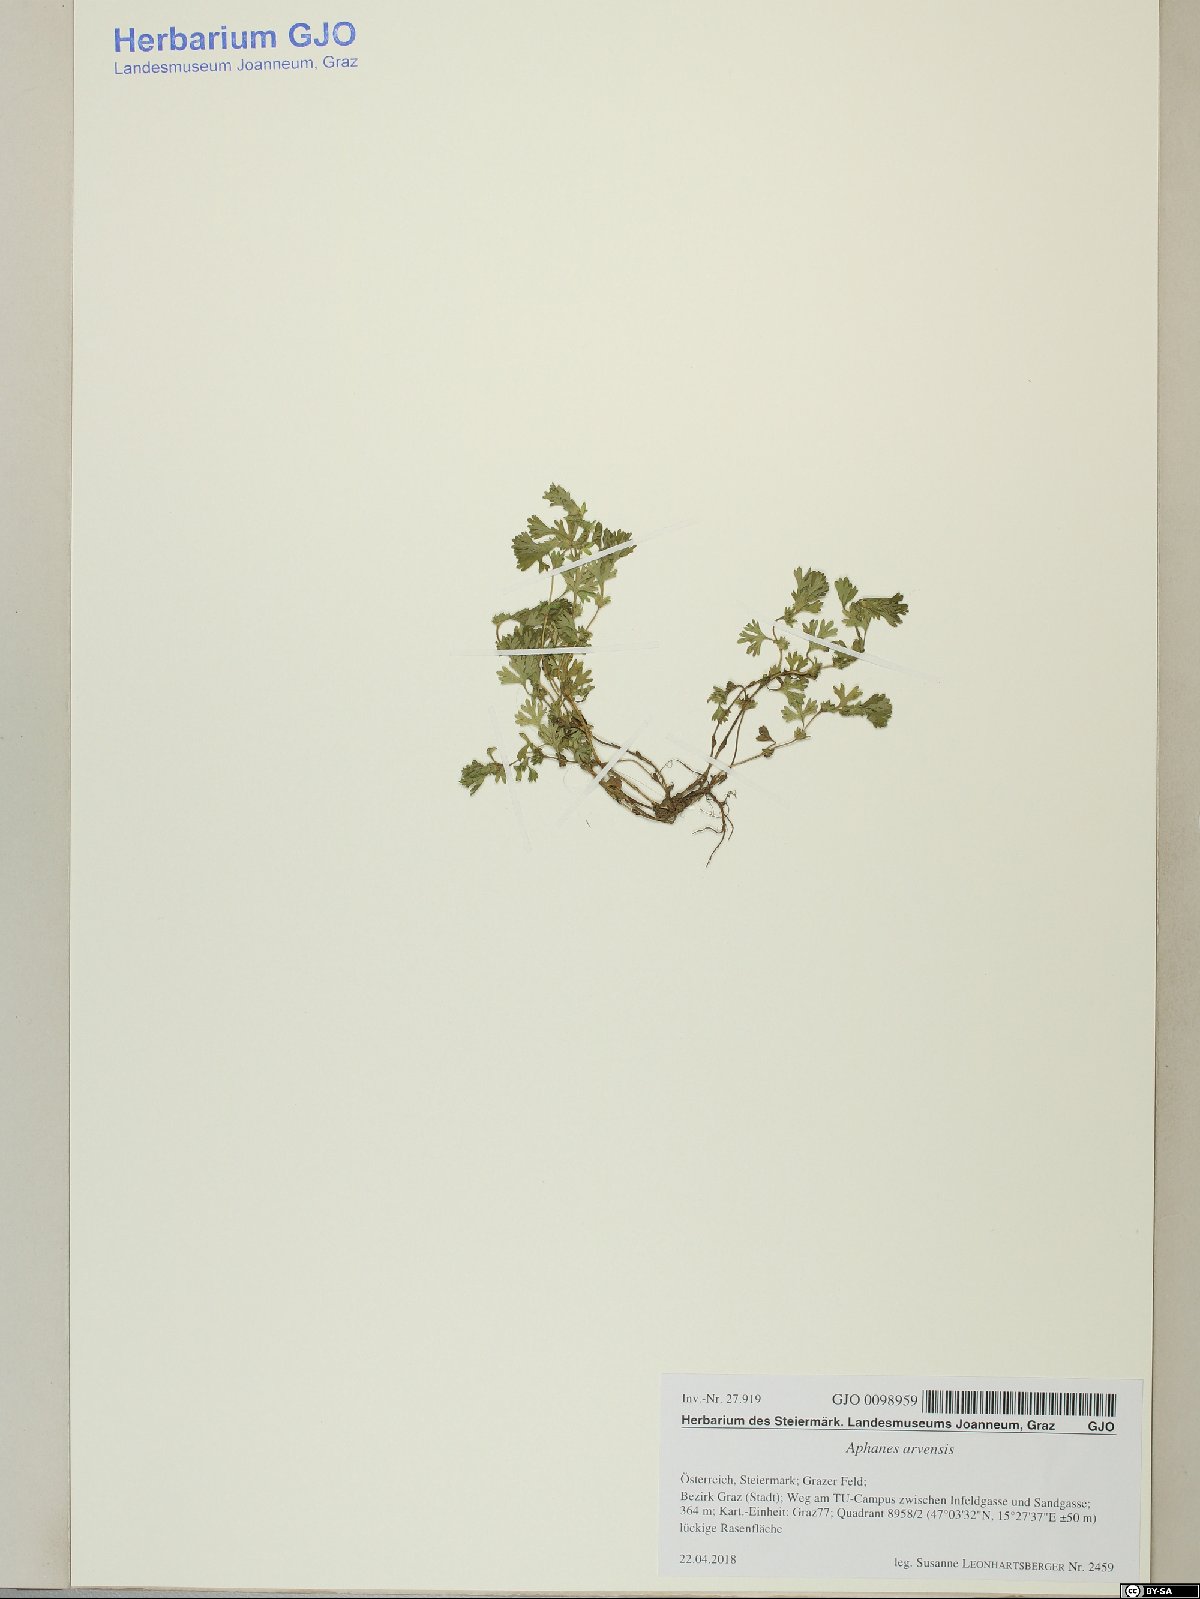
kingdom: Plantae
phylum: Tracheophyta
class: Magnoliopsida
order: Rosales
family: Rosaceae
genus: Aphanes
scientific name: Aphanes arvensis
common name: Parsley-piert
